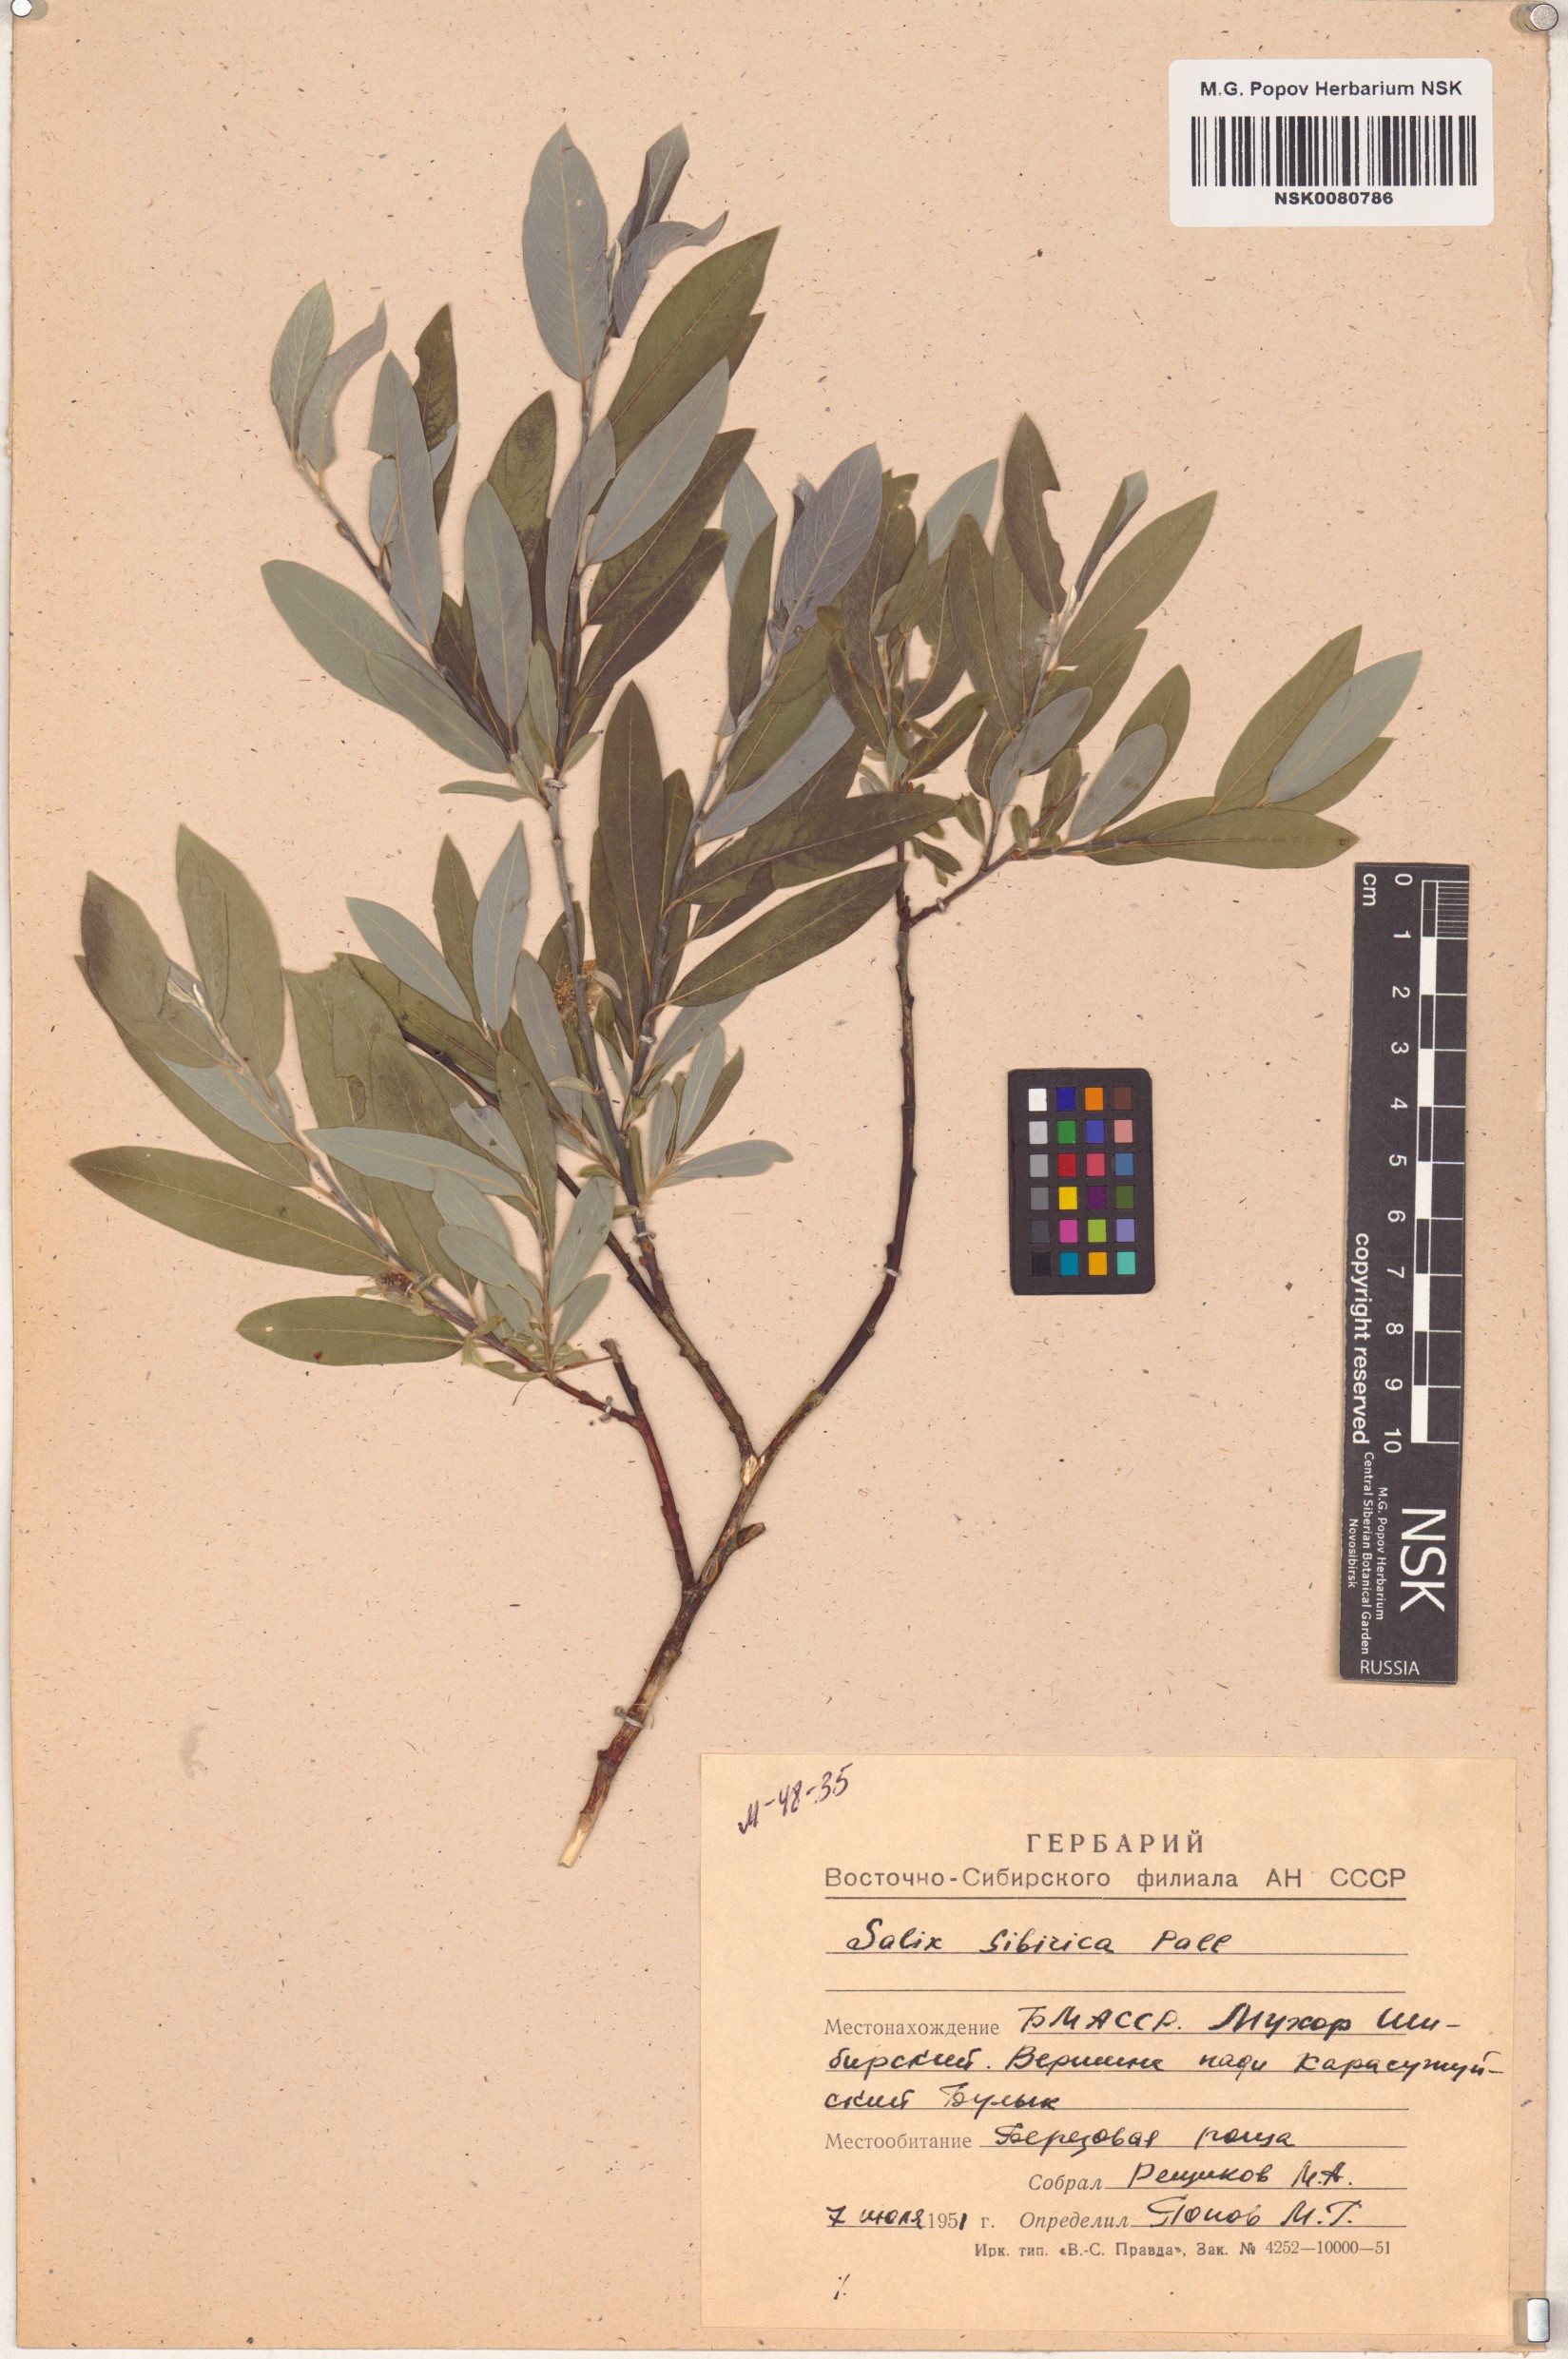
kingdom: Plantae
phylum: Tracheophyta
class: Magnoliopsida
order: Malpighiales
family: Salicaceae
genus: Salix
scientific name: Salix rosmarinifolia
